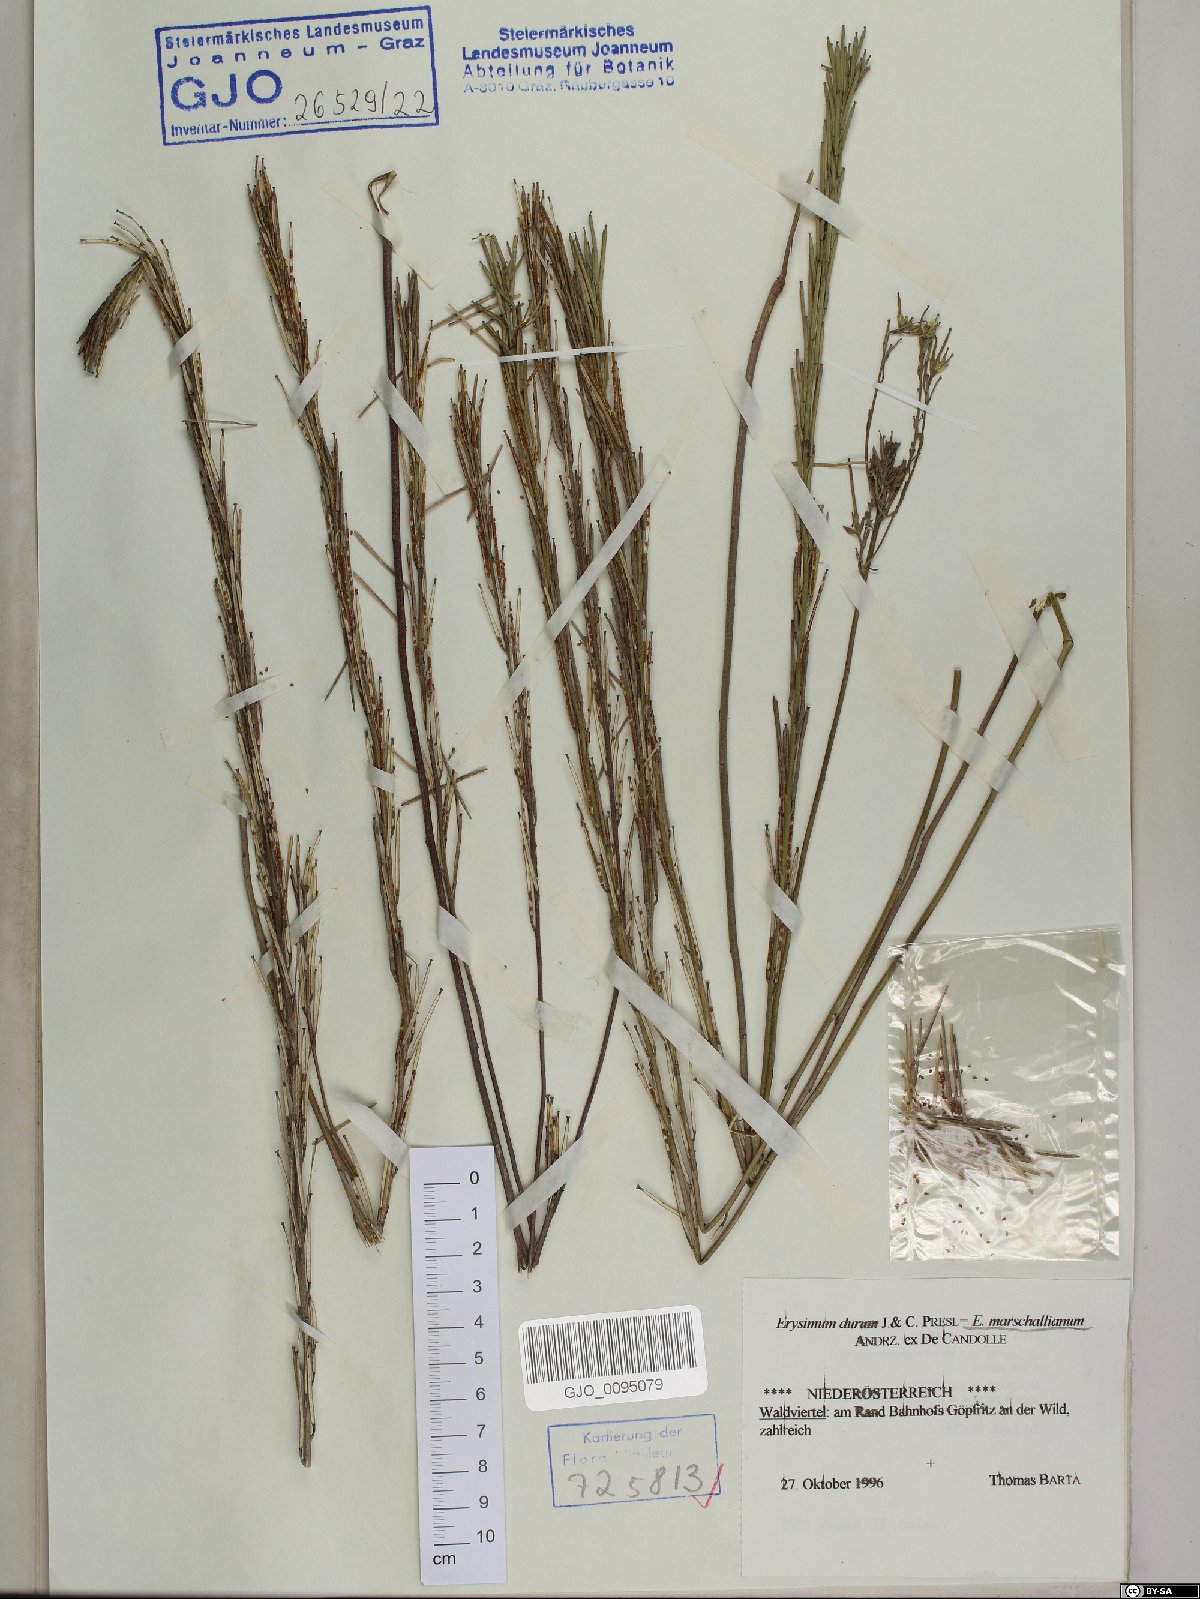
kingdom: Plantae
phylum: Tracheophyta
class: Magnoliopsida
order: Brassicales
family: Brassicaceae
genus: Erysimum
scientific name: Erysimum marschallianum
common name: Hard wallflower
